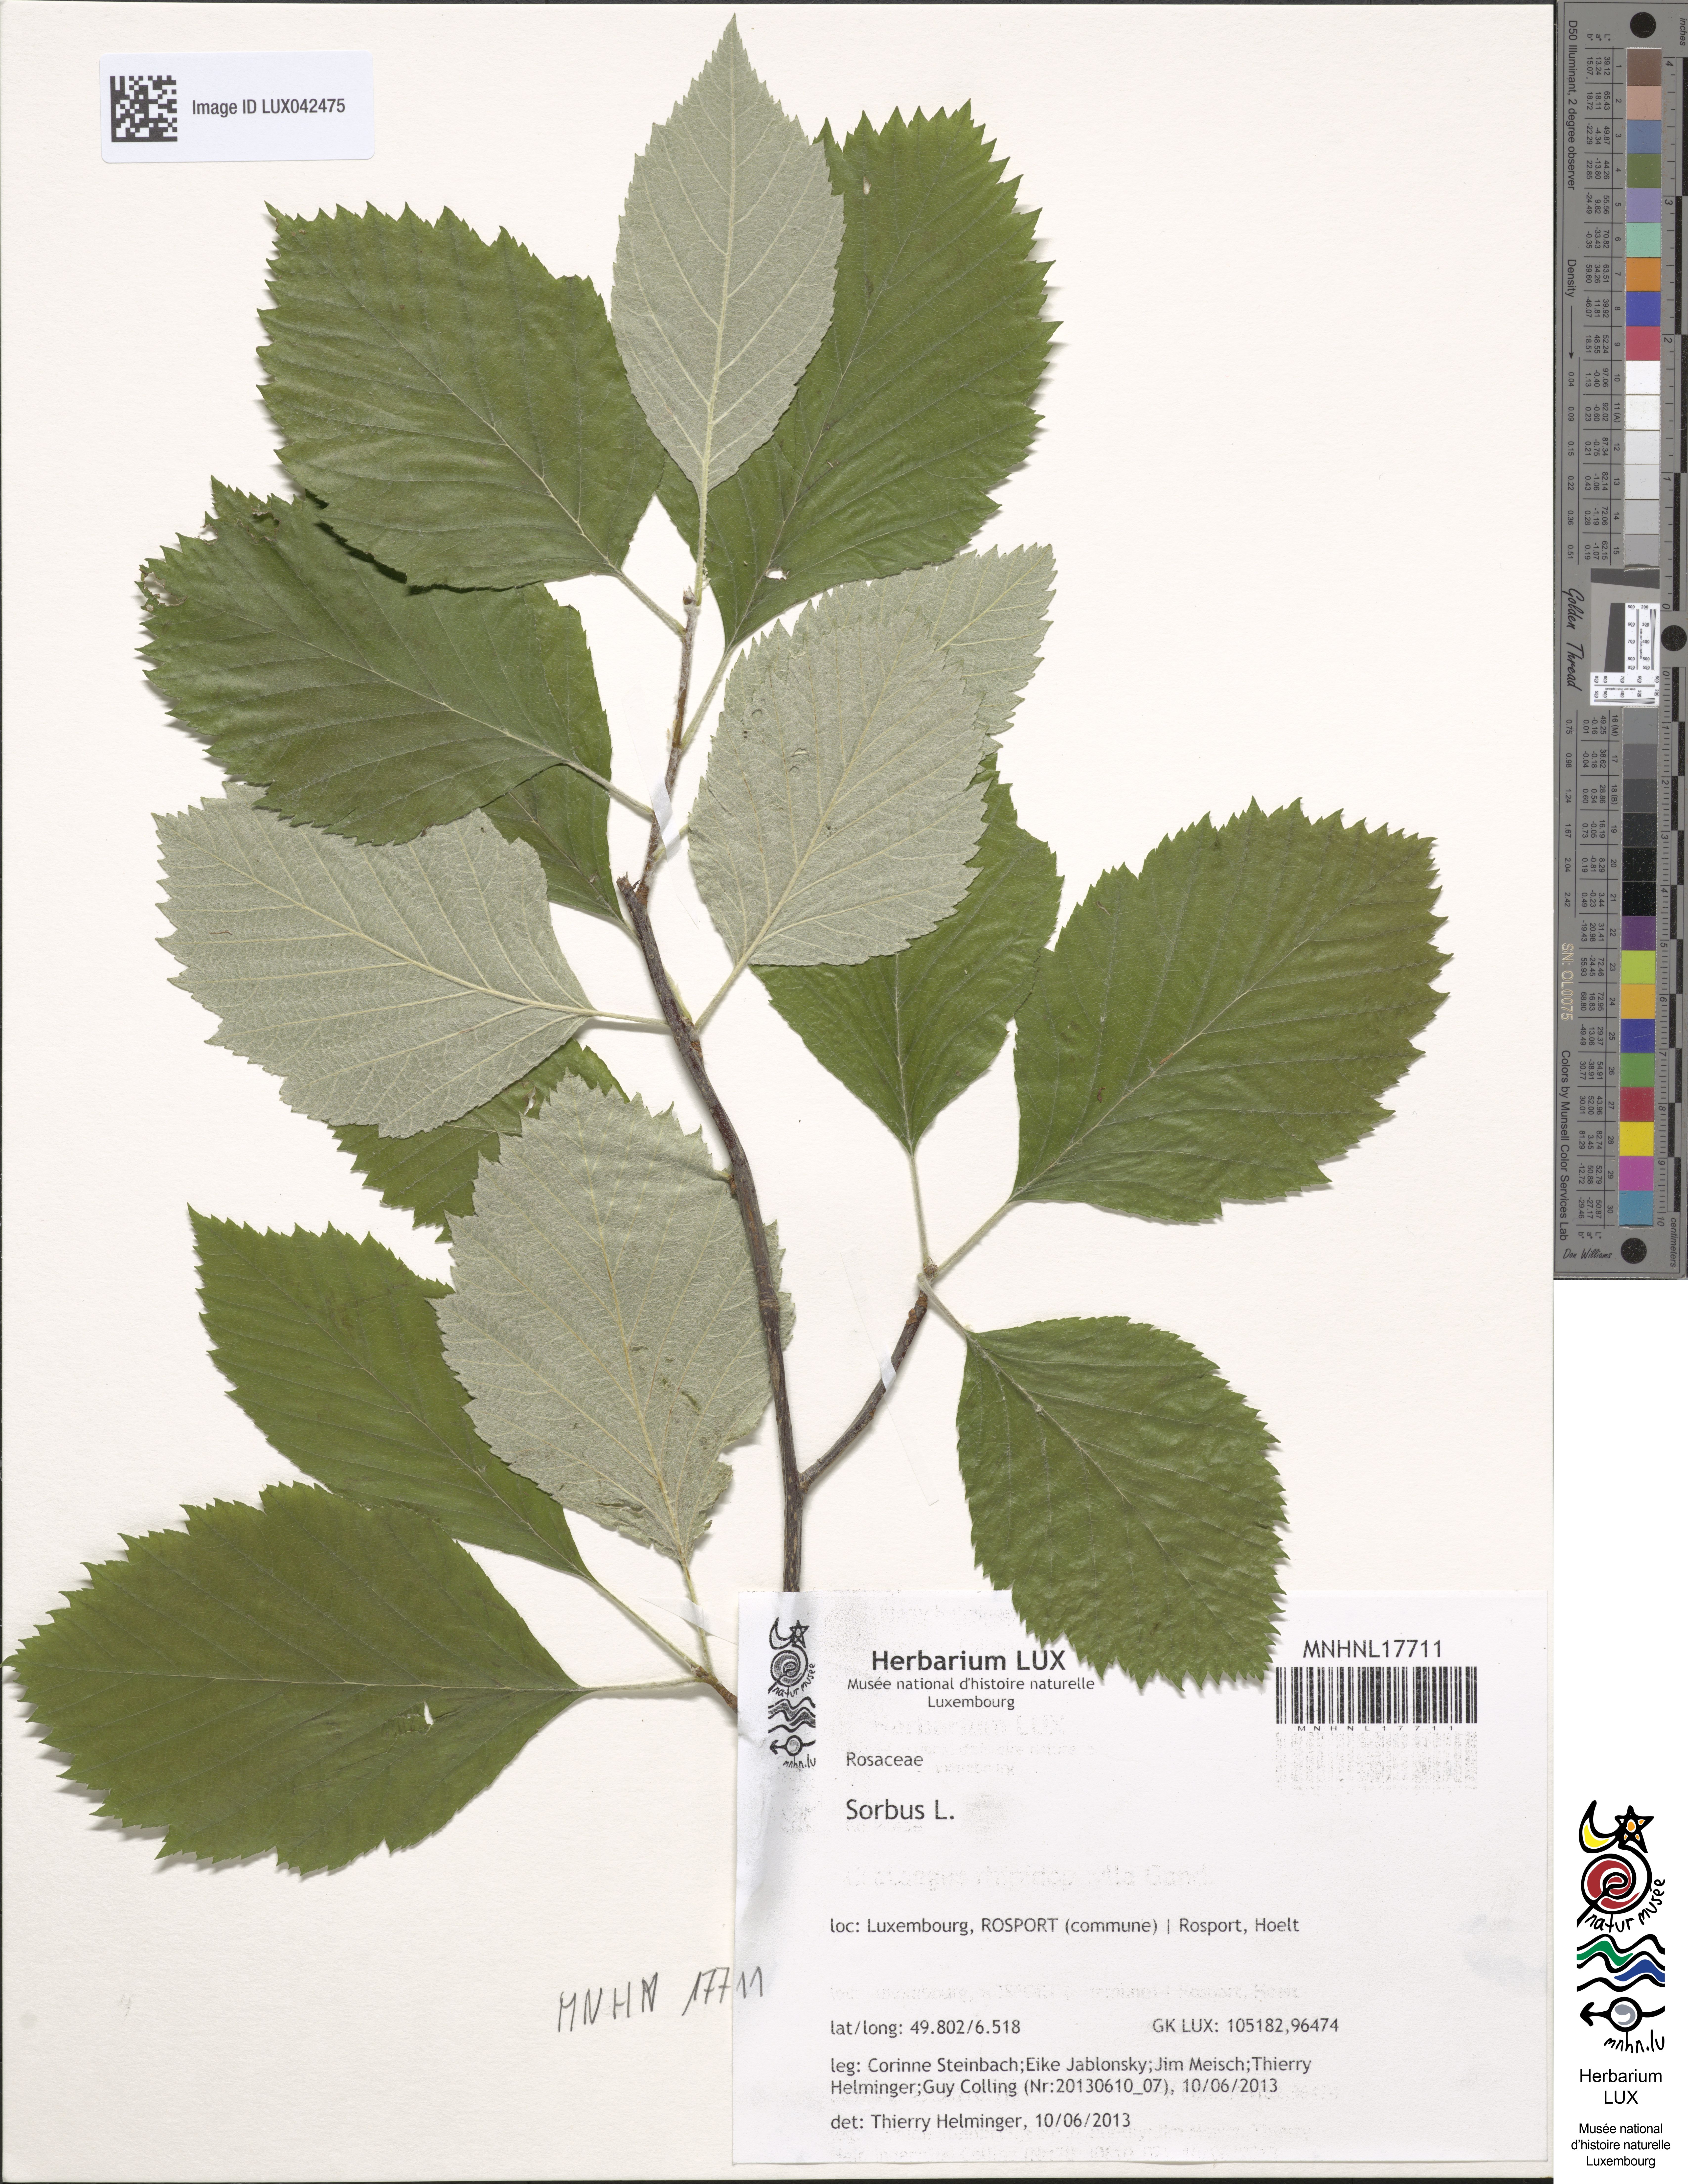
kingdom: Plantae
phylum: Tracheophyta
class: Magnoliopsida
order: Rosales
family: Rosaceae
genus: Sorbus
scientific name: Sorbus
